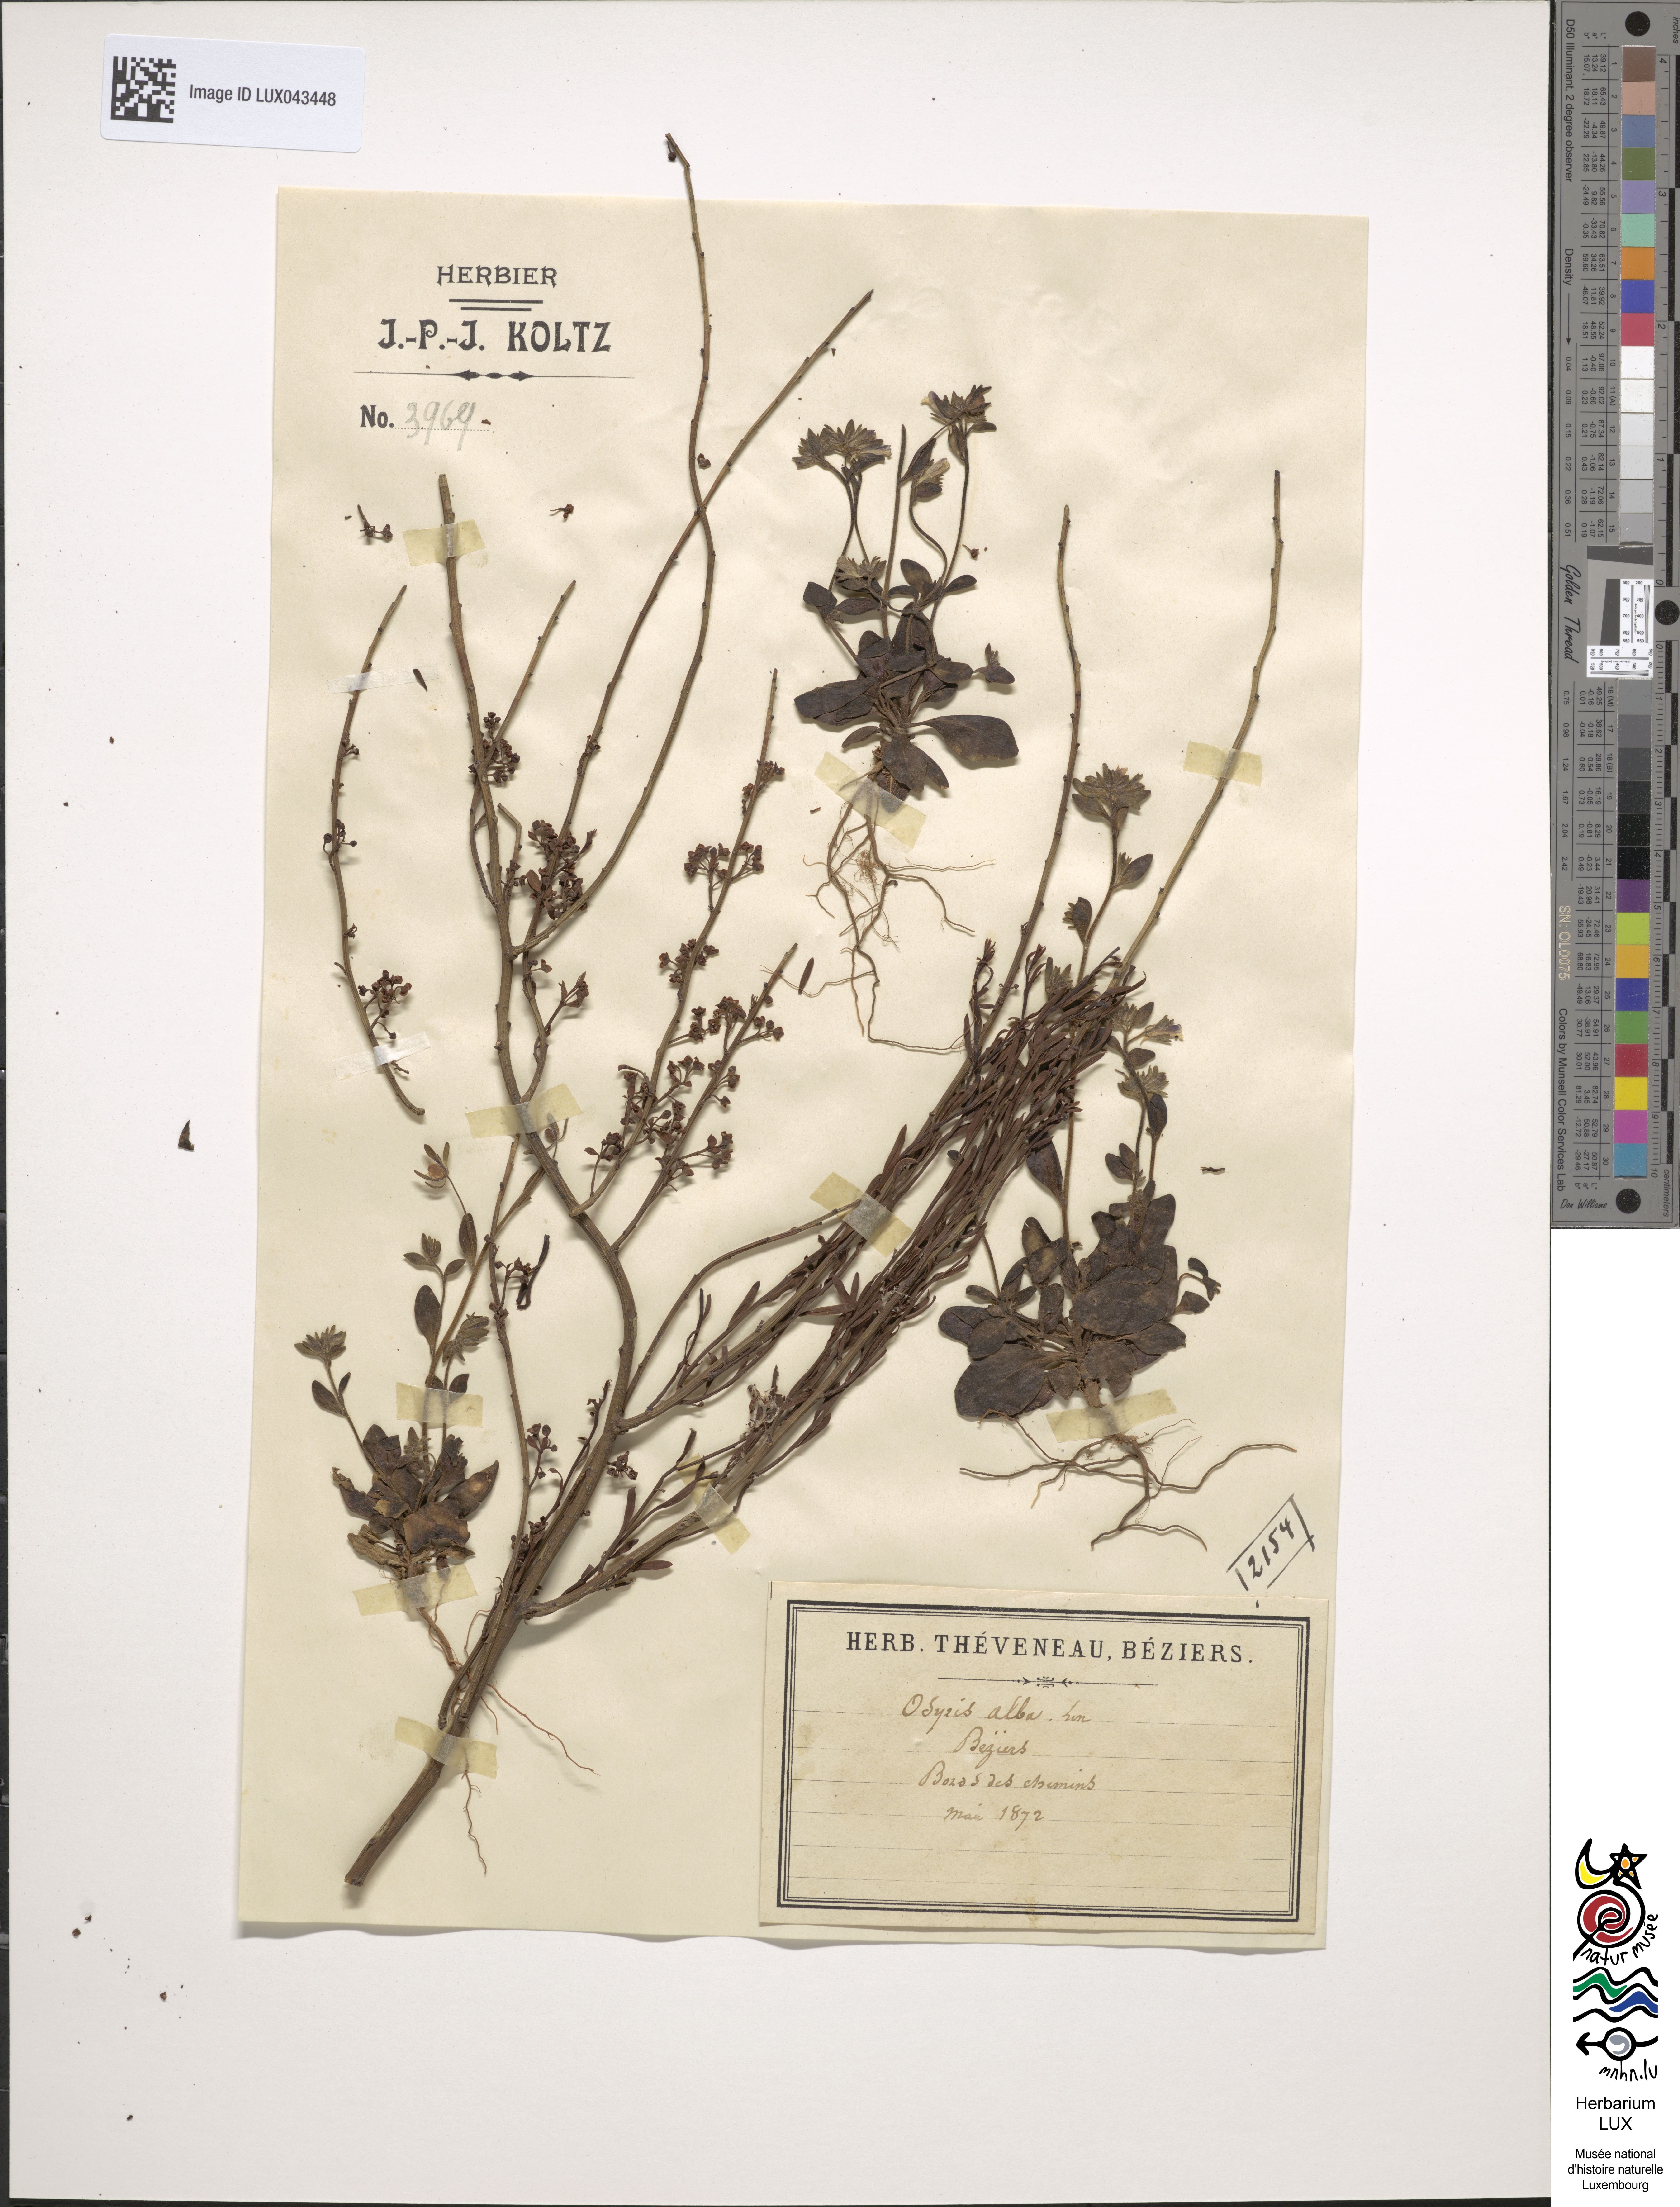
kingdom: Plantae
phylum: Tracheophyta
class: Magnoliopsida
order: Santalales
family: Santalaceae
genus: Osyris
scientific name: Osyris alba
